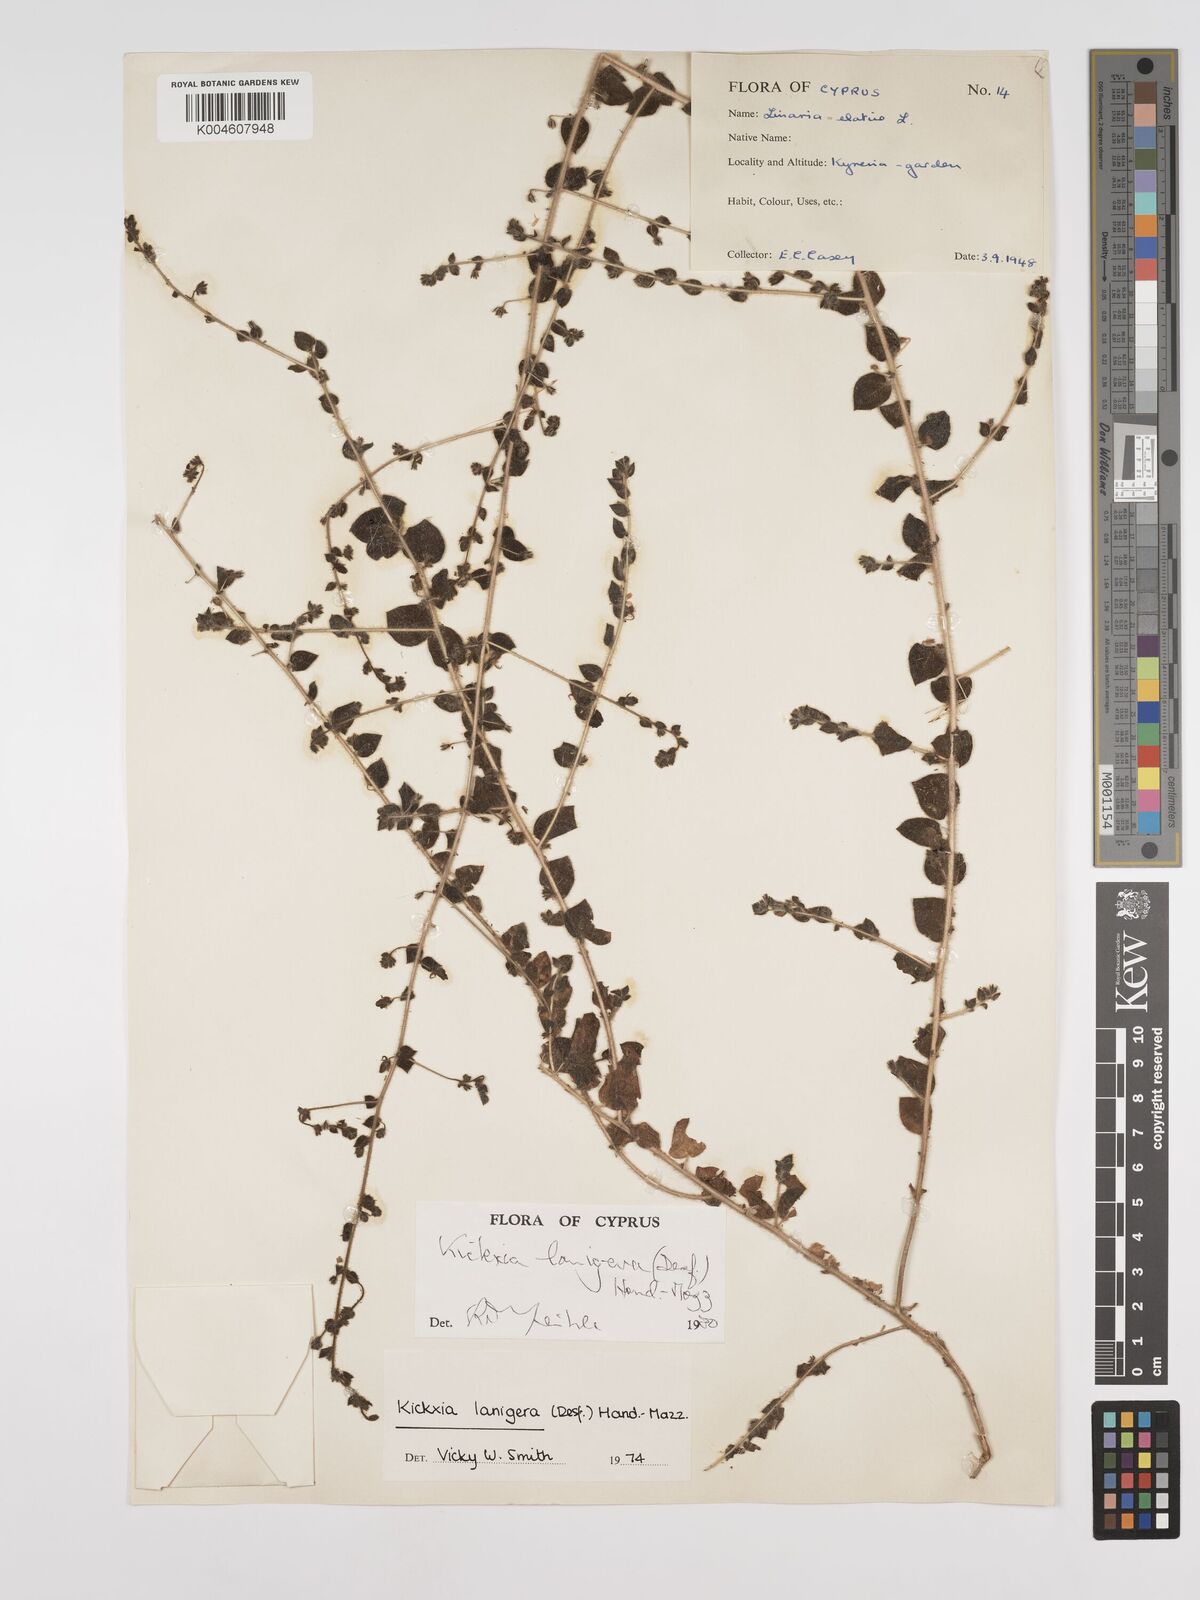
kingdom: Plantae
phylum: Tracheophyta
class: Magnoliopsida
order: Lamiales
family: Plantaginaceae
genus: Kickxia
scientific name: Kickxia lanigera
